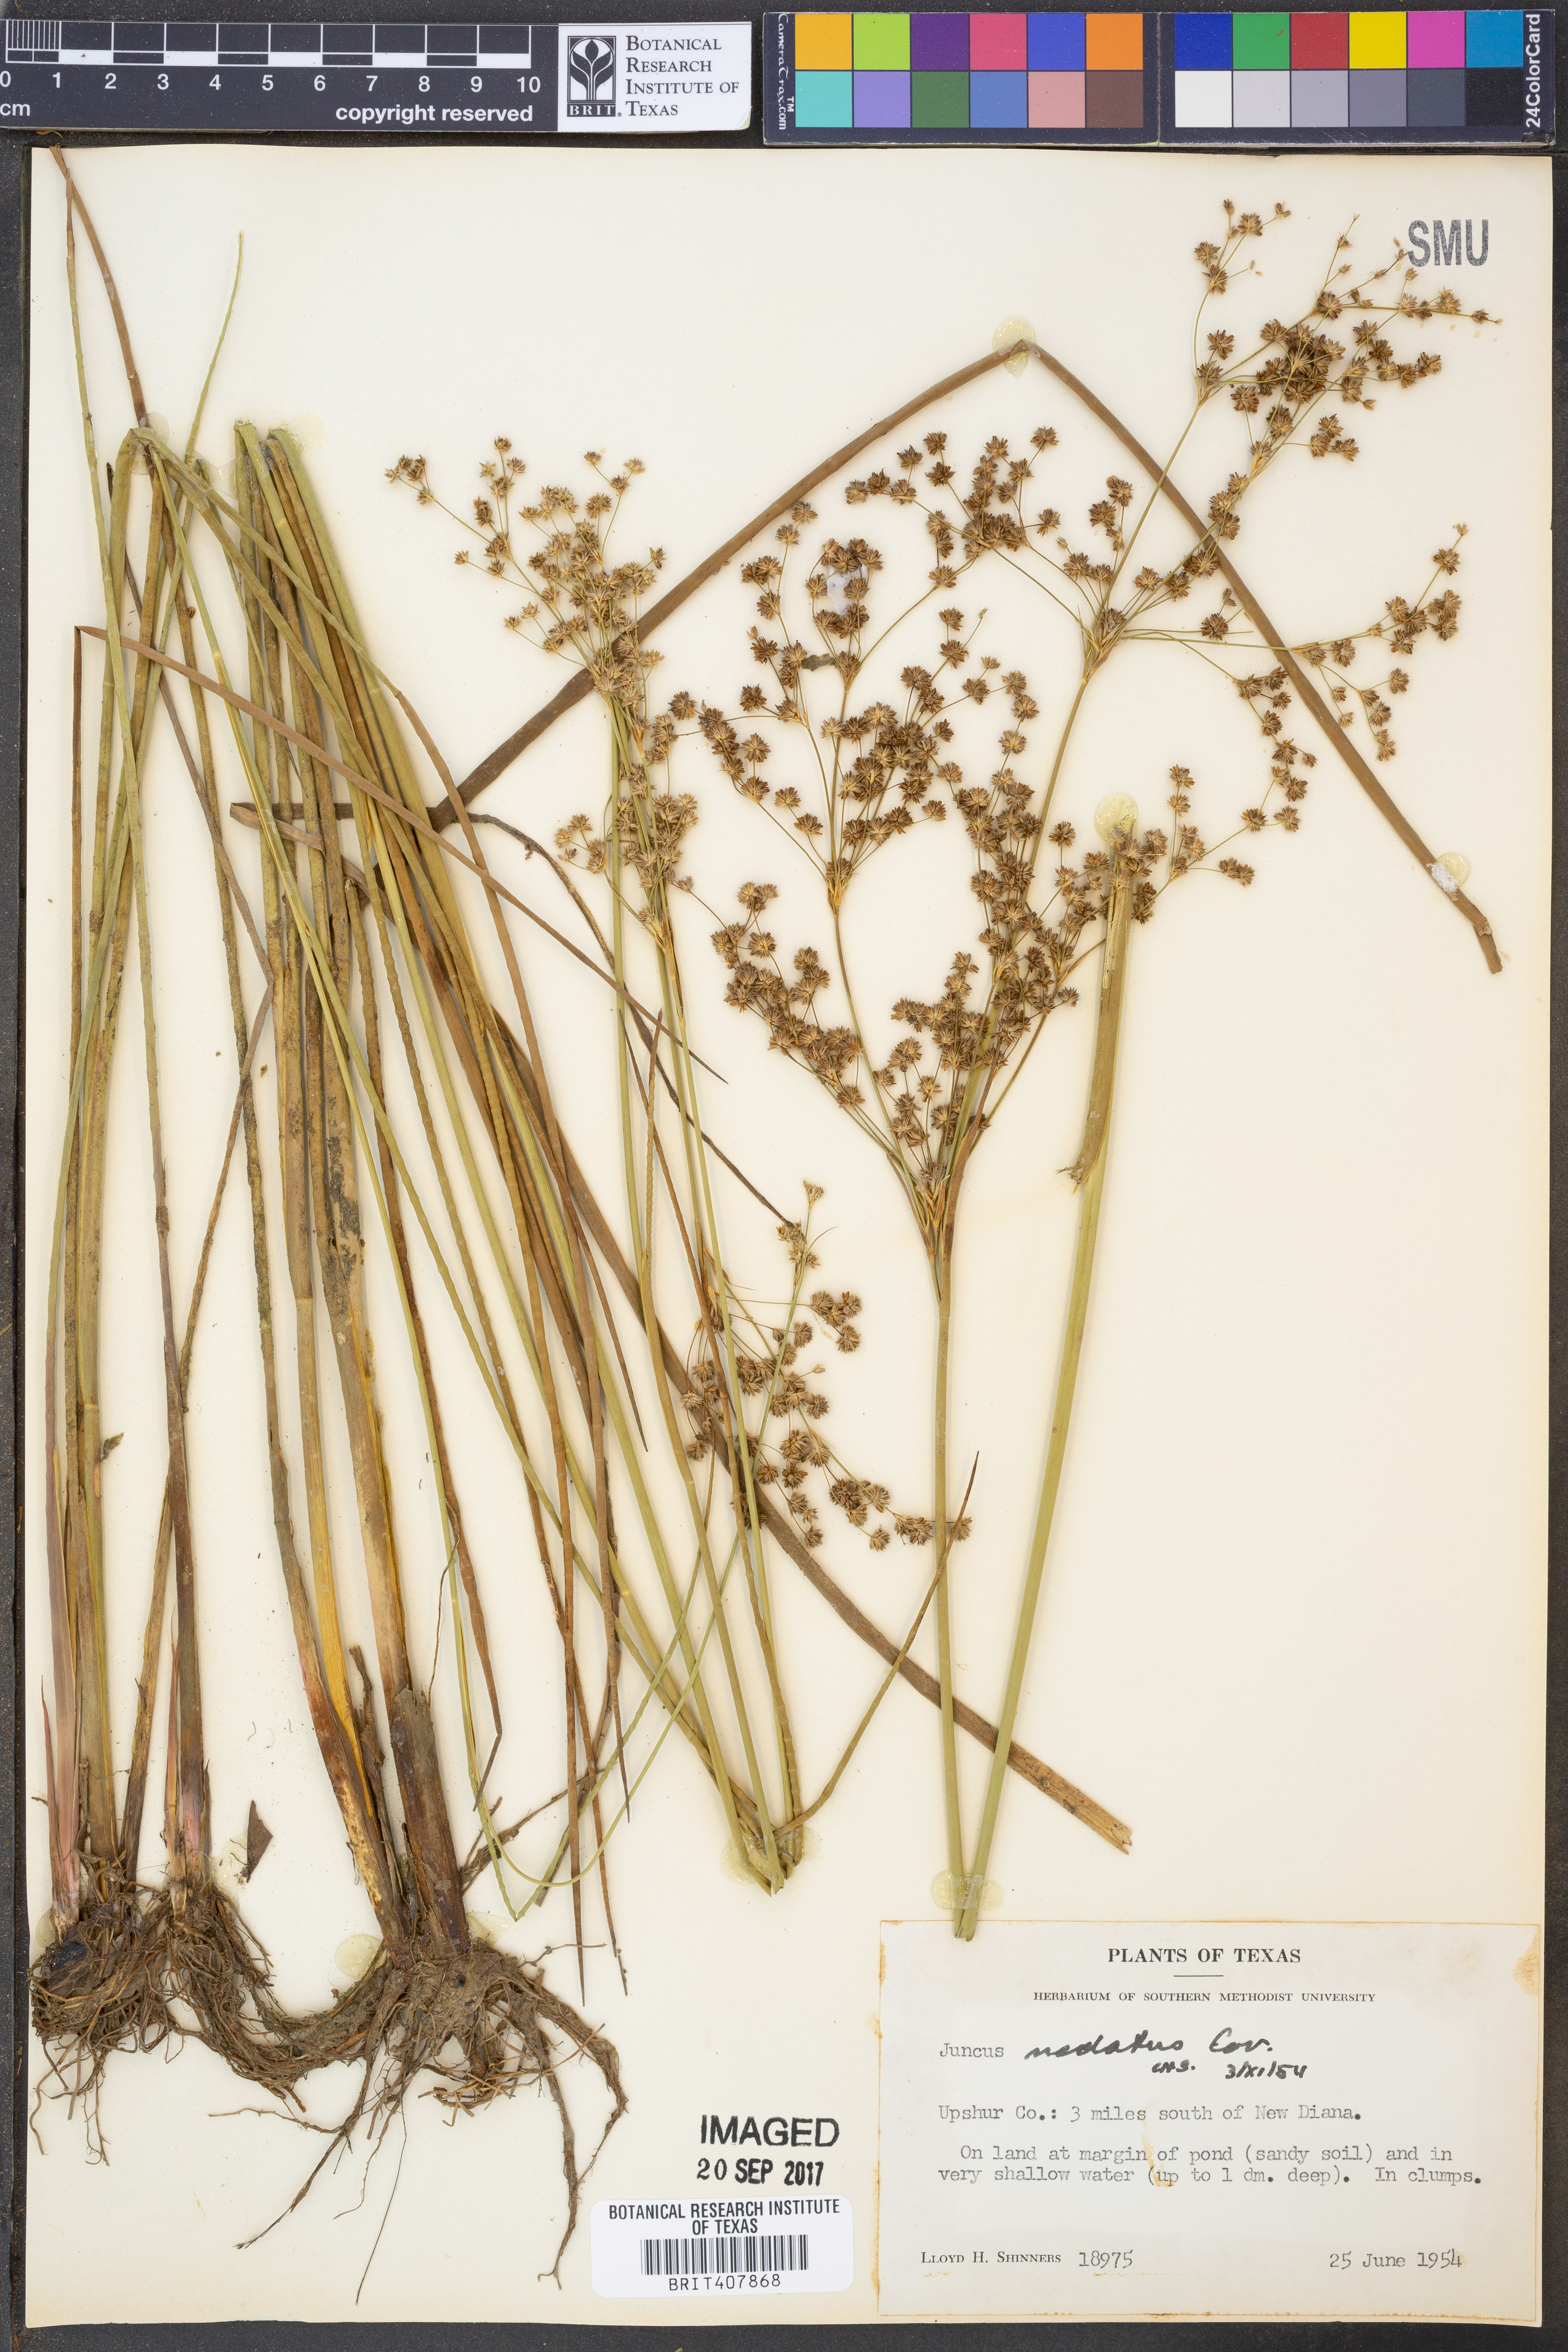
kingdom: Plantae
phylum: Tracheophyta
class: Liliopsida
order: Poales
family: Juncaceae
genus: Juncus
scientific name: Juncus nodatus
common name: Stout rush
